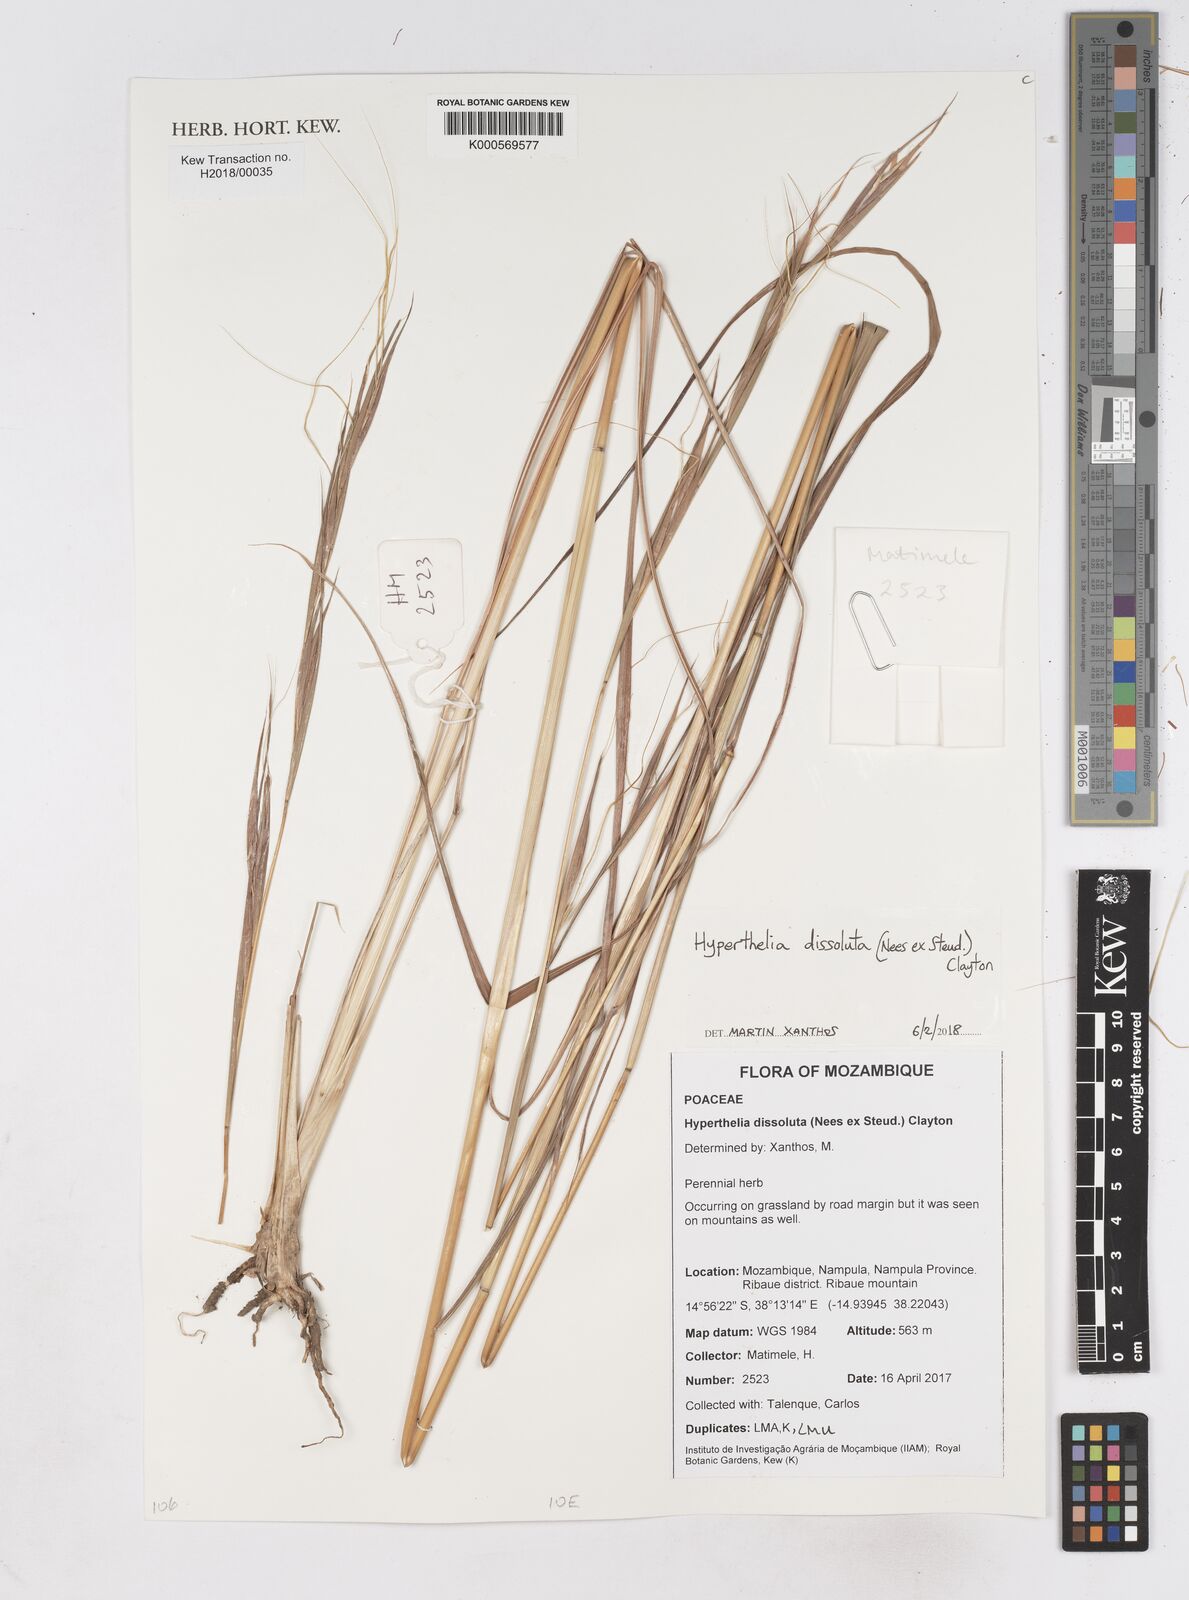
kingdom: Plantae
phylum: Tracheophyta
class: Liliopsida
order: Poales
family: Poaceae
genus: Hyperthelia
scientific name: Hyperthelia dissoluta
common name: Yellow thatching grass
